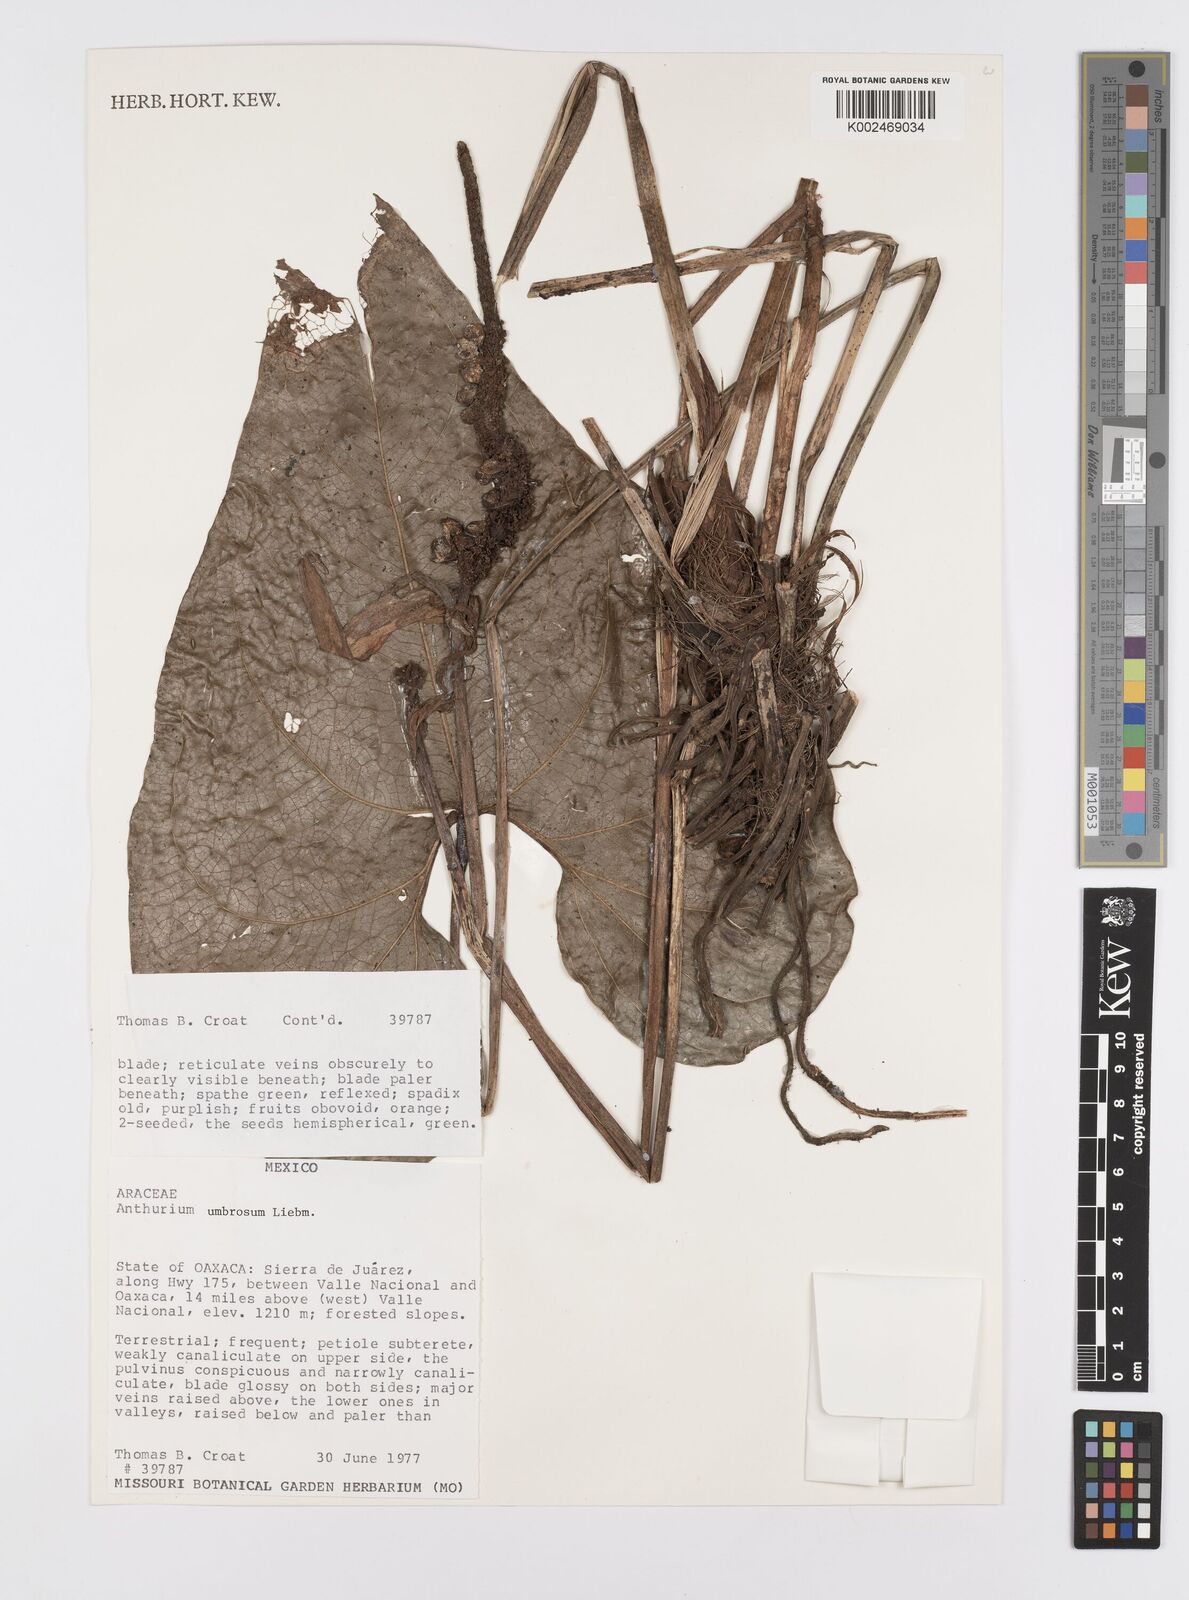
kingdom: Plantae
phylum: Tracheophyta
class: Liliopsida
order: Alismatales
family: Araceae
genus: Anthurium
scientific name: Anthurium umbrosum
